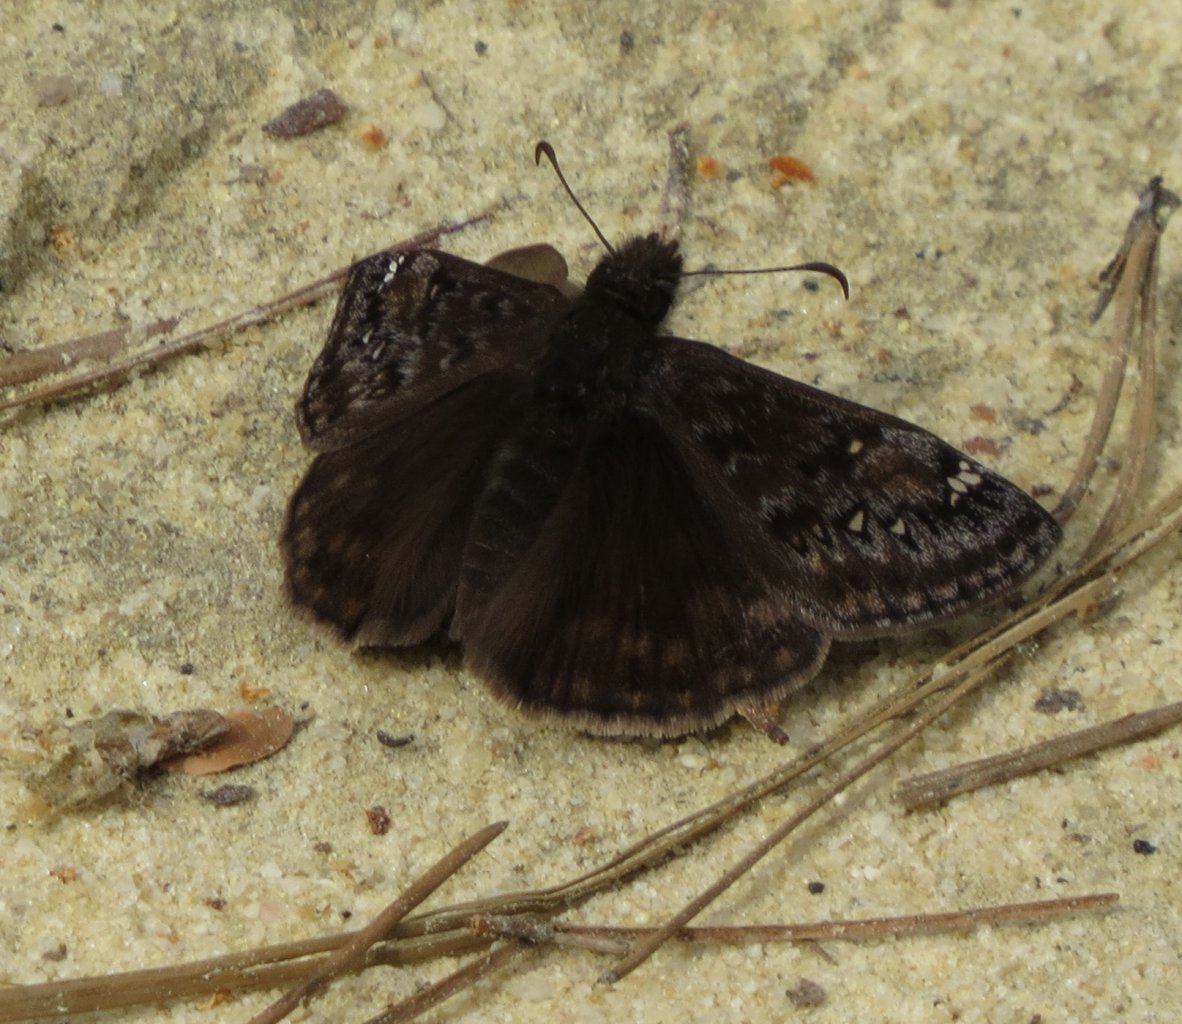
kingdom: Animalia
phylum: Arthropoda
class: Insecta
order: Lepidoptera
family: Hesperiidae
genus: Gesta
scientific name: Gesta
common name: Juvenal's Duskywing
